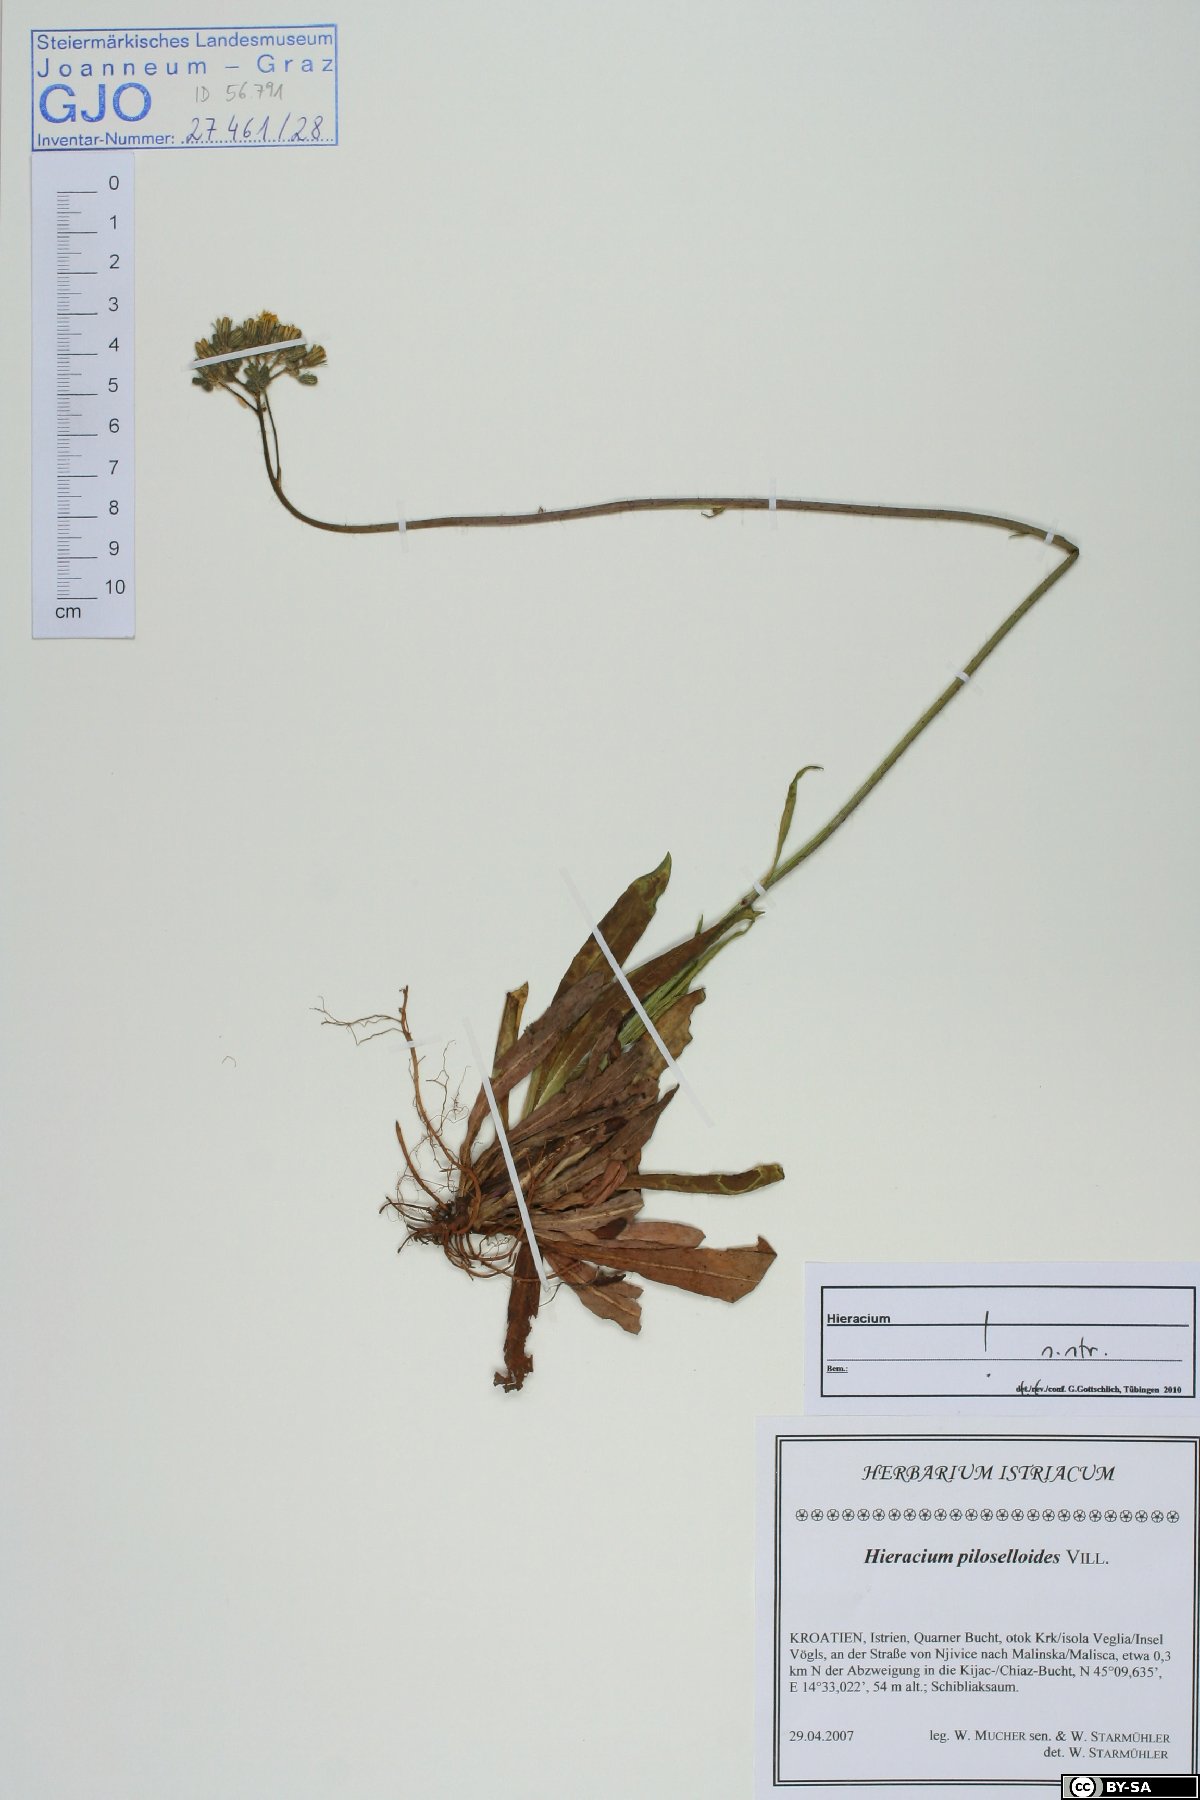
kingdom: Plantae
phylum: Tracheophyta
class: Magnoliopsida
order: Asterales
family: Asteraceae
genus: Pilosella
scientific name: Pilosella piloselloides
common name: Glaucous king-devil
